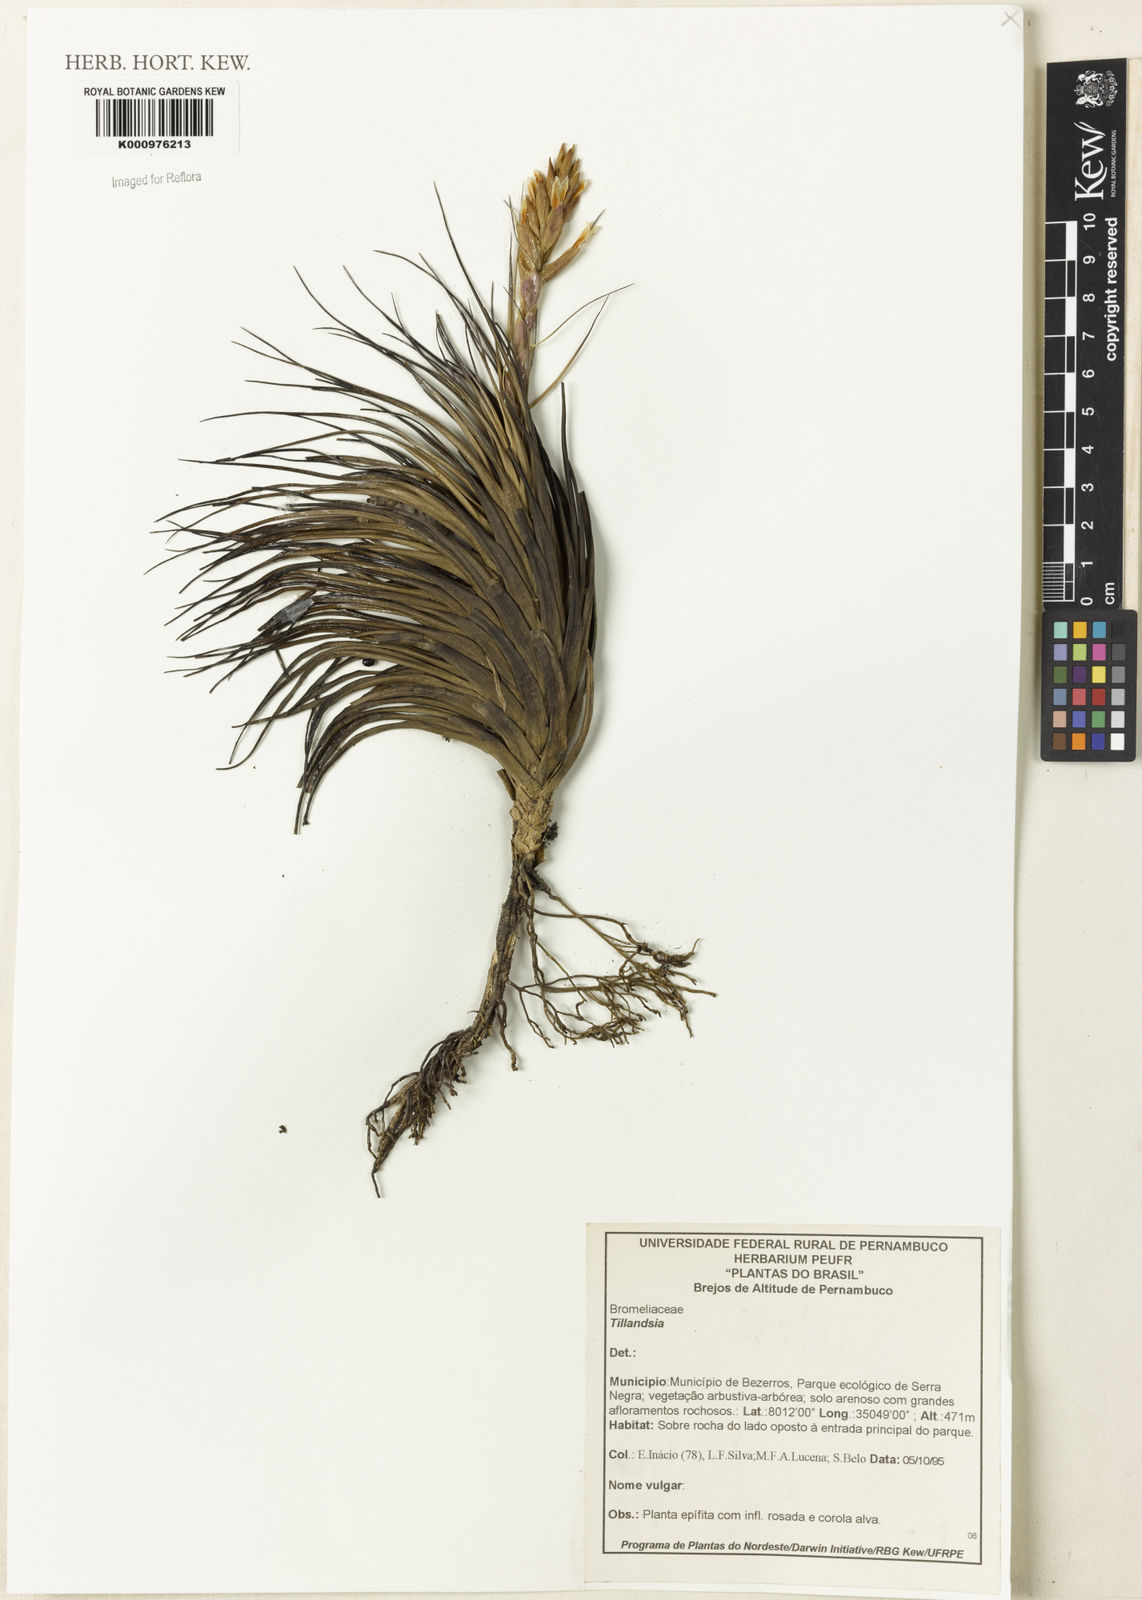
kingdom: Plantae
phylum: Tracheophyta
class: Liliopsida
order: Poales
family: Bromeliaceae
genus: Tillandsia
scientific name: Tillandsia
